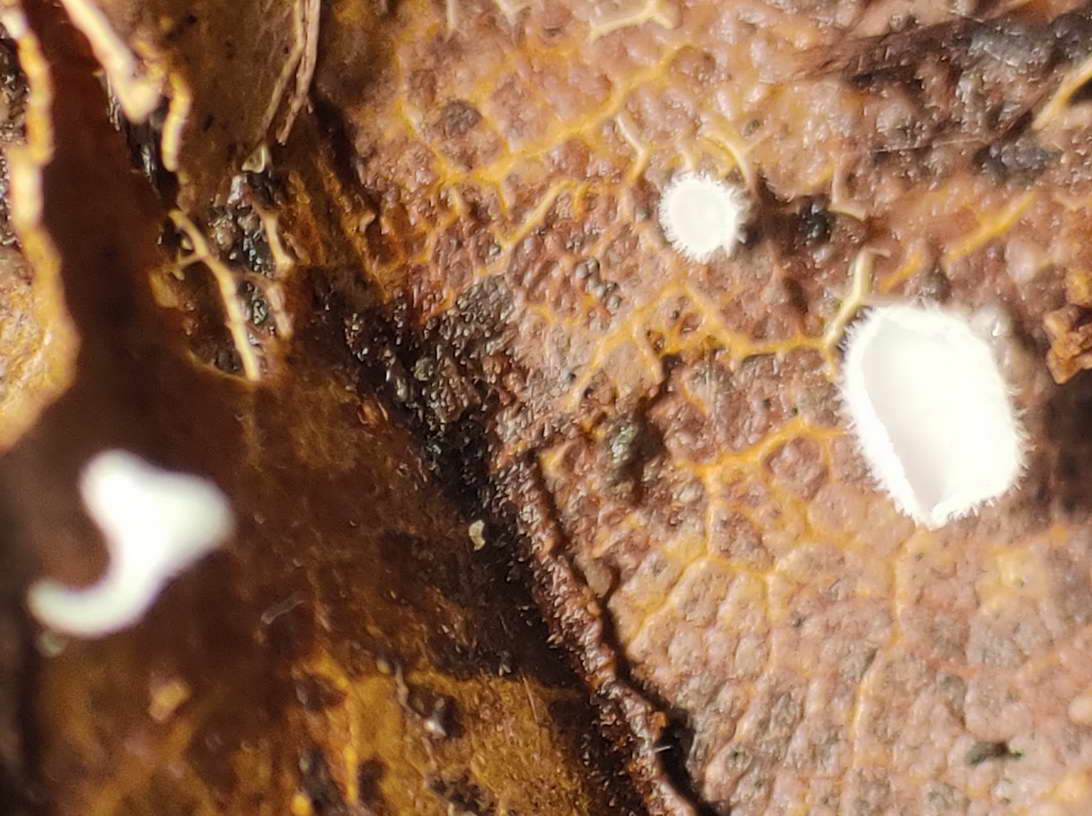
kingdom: Fungi
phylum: Ascomycota
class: Leotiomycetes
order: Helotiales
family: Lachnaceae
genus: Lachnum
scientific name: Lachnum virgineum
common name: jomfru-frynseskive
